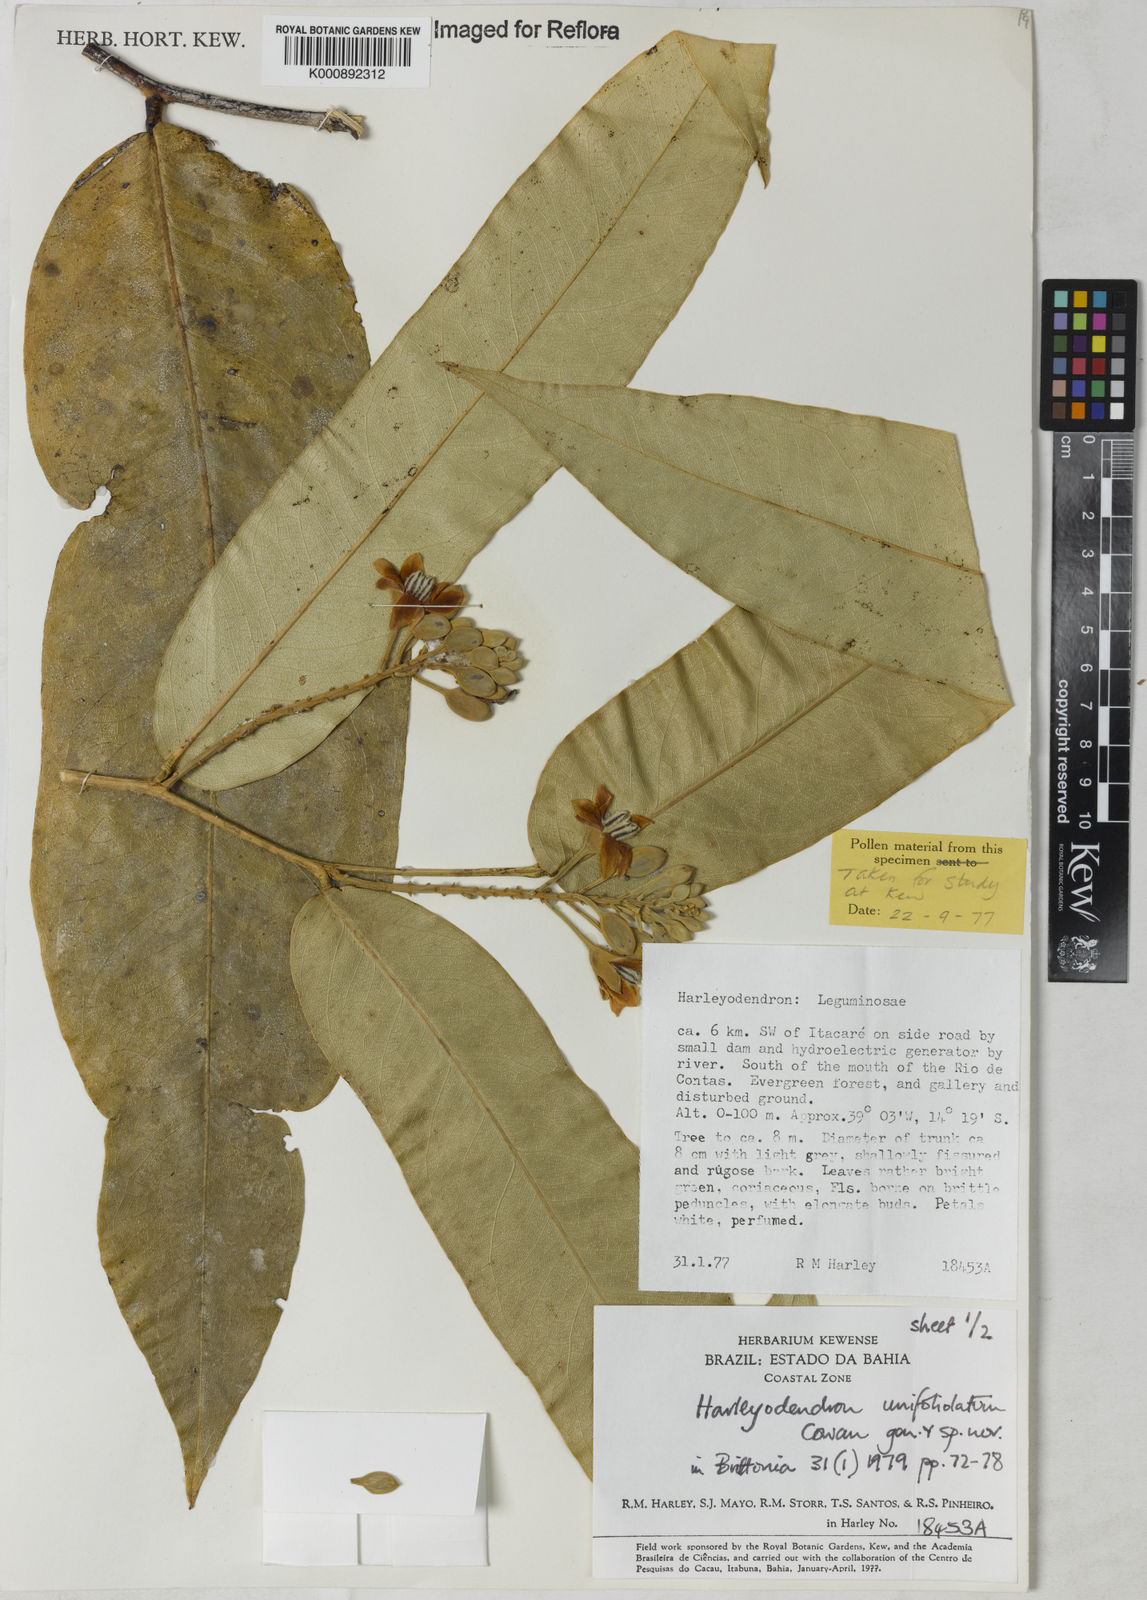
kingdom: Plantae
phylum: Tracheophyta
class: Magnoliopsida
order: Fabales
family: Fabaceae
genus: Harleyodendron
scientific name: Harleyodendron unifoliolatum
